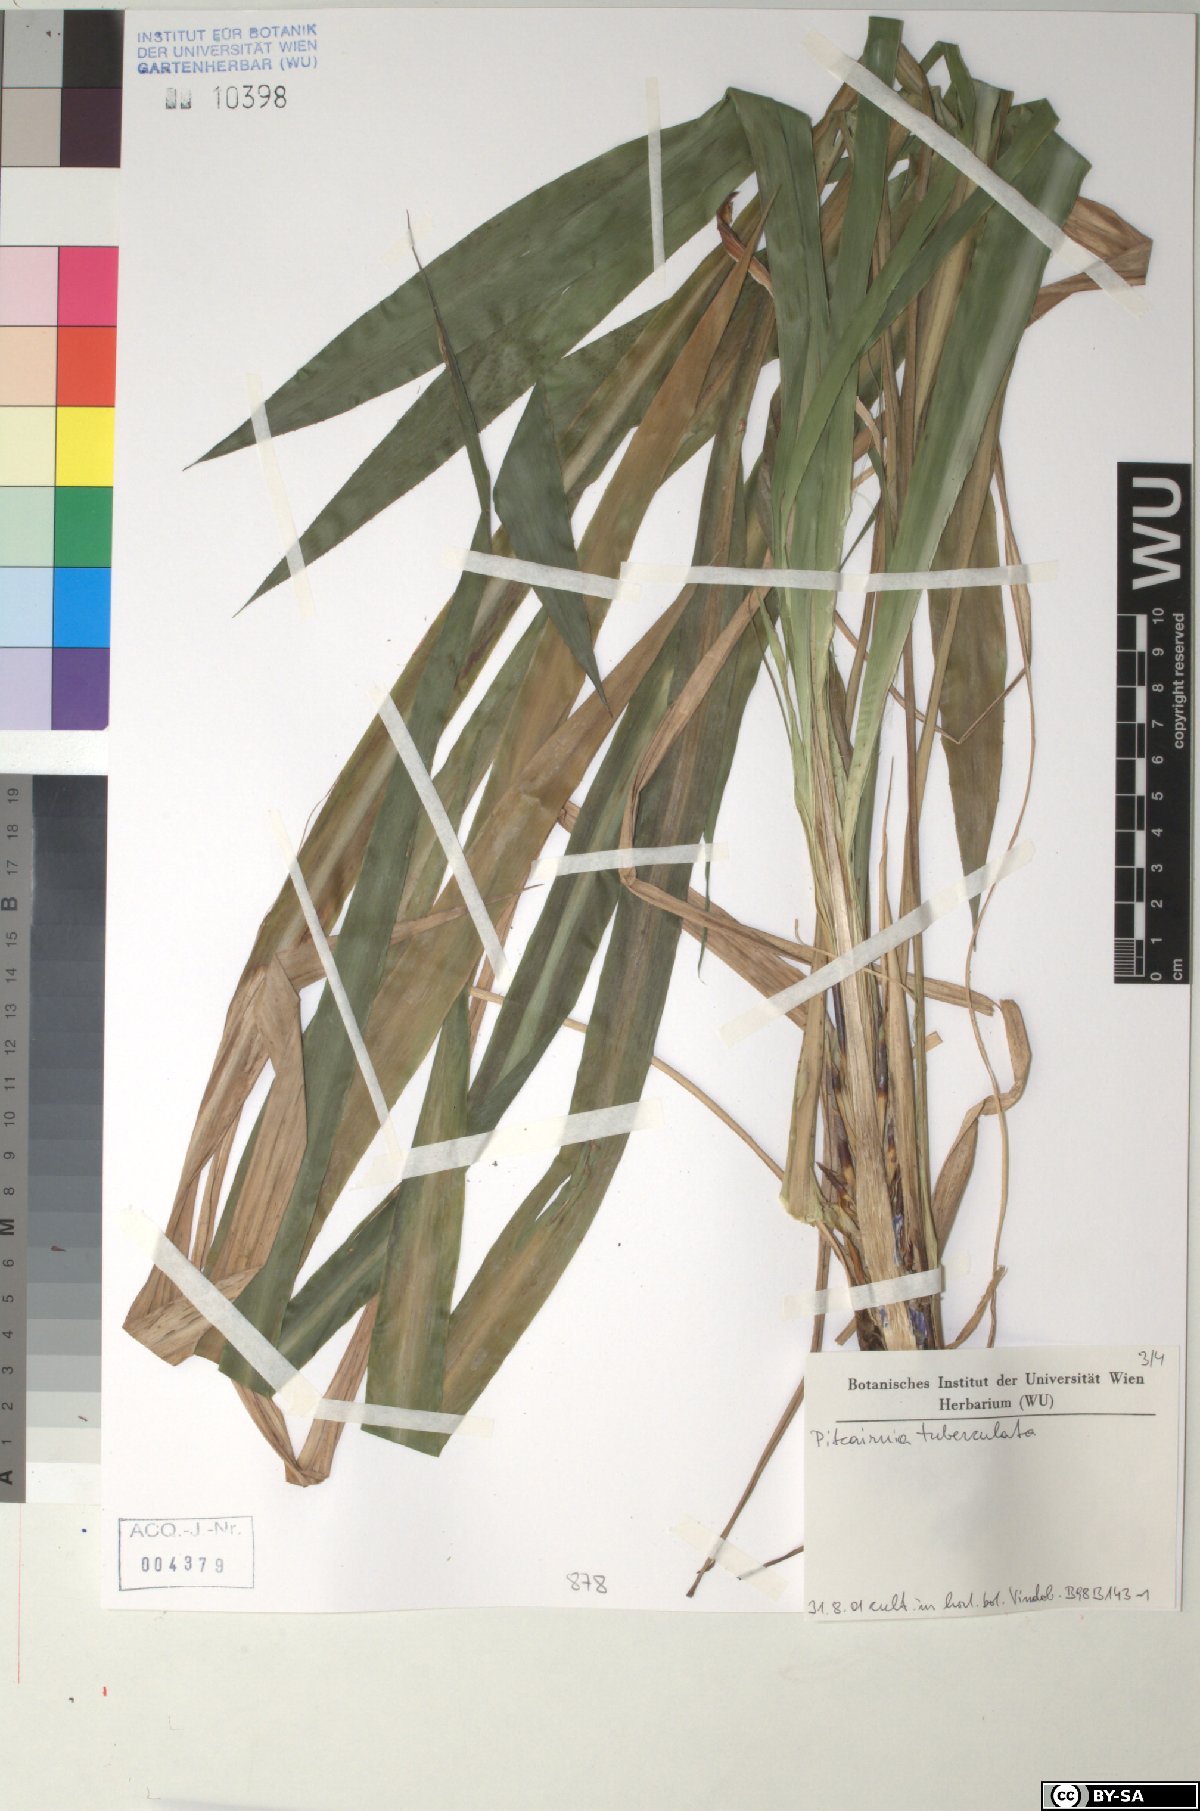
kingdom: Plantae
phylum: Tracheophyta
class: Liliopsida
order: Poales
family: Bromeliaceae
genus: Pitcairnia
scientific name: Pitcairnia tuberculata
